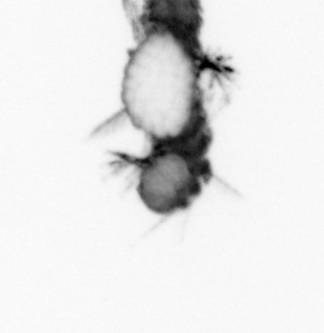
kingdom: Animalia
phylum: Annelida
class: Polychaeta
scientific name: Polychaeta
